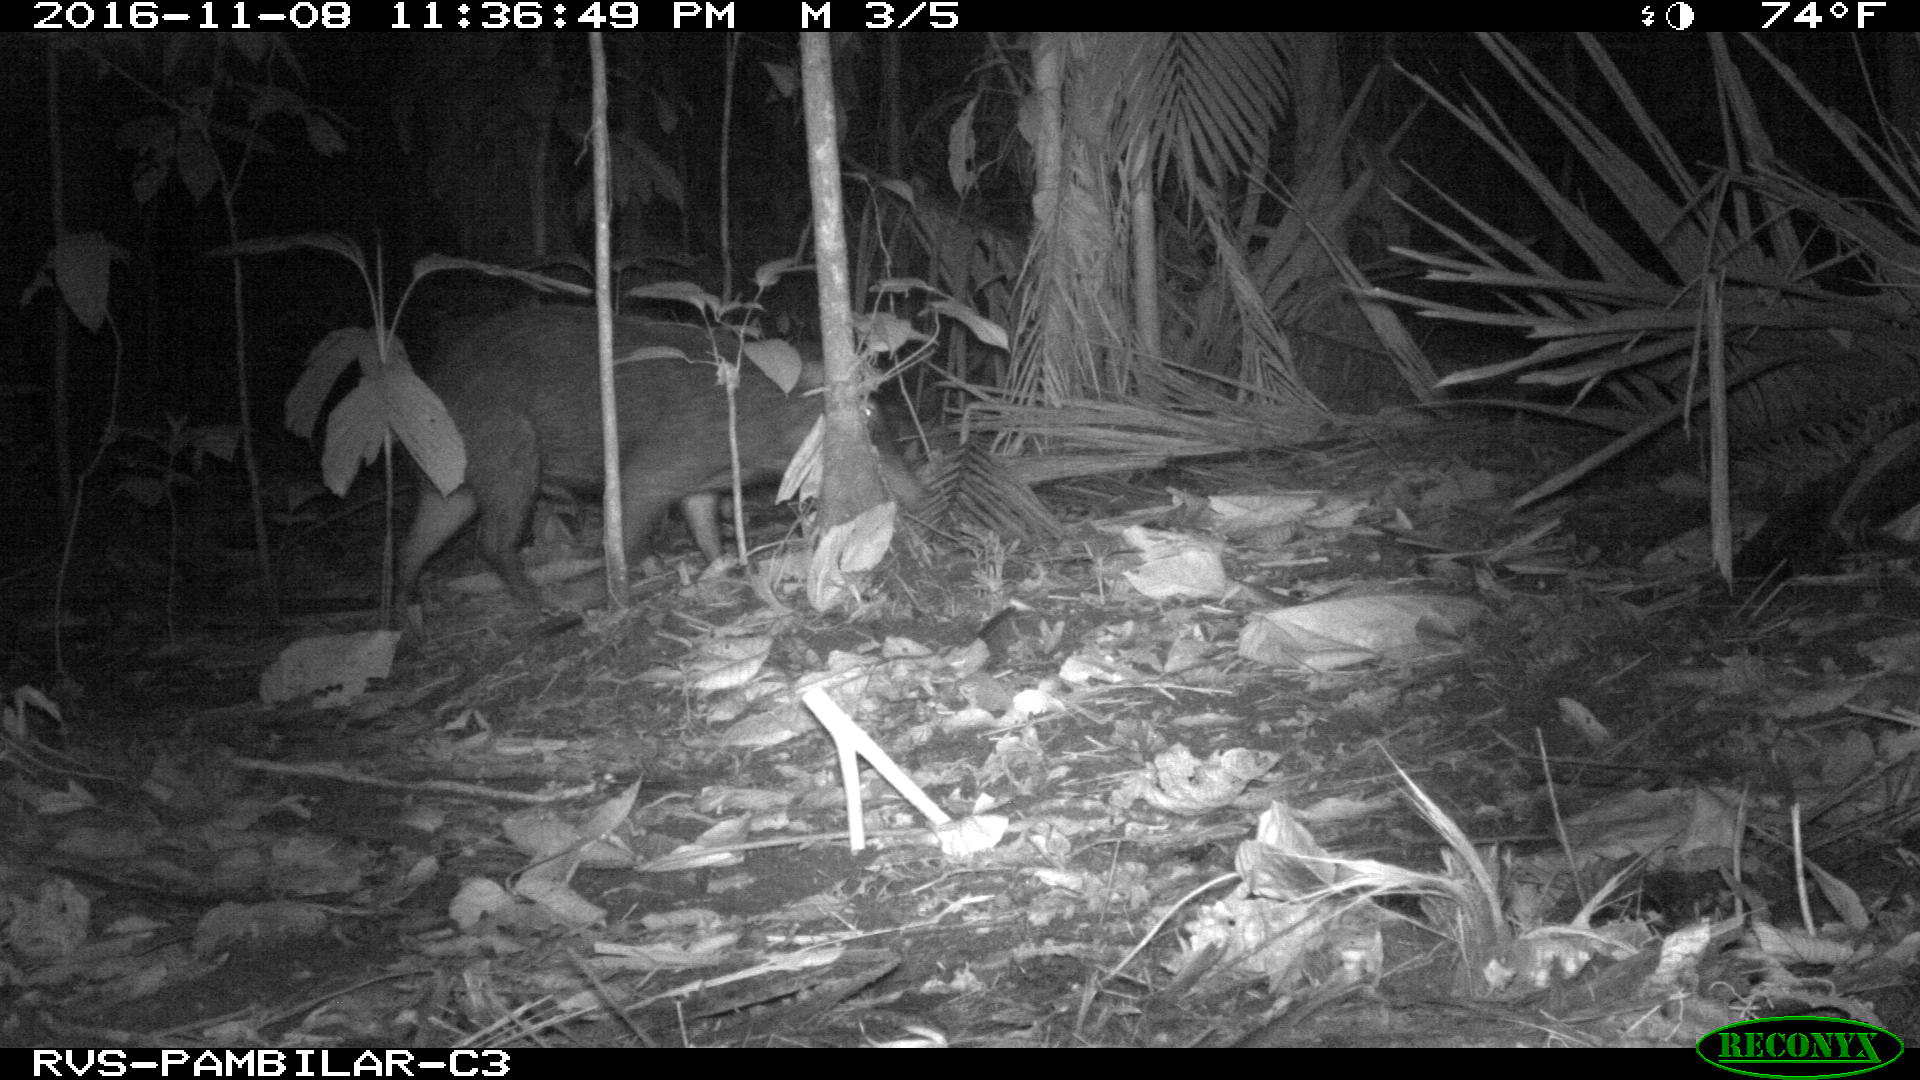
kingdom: Animalia
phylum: Chordata
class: Mammalia
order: Artiodactyla
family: Tayassuidae
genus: Tayassu
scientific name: Tayassu pecari
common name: White-lipped peccary
